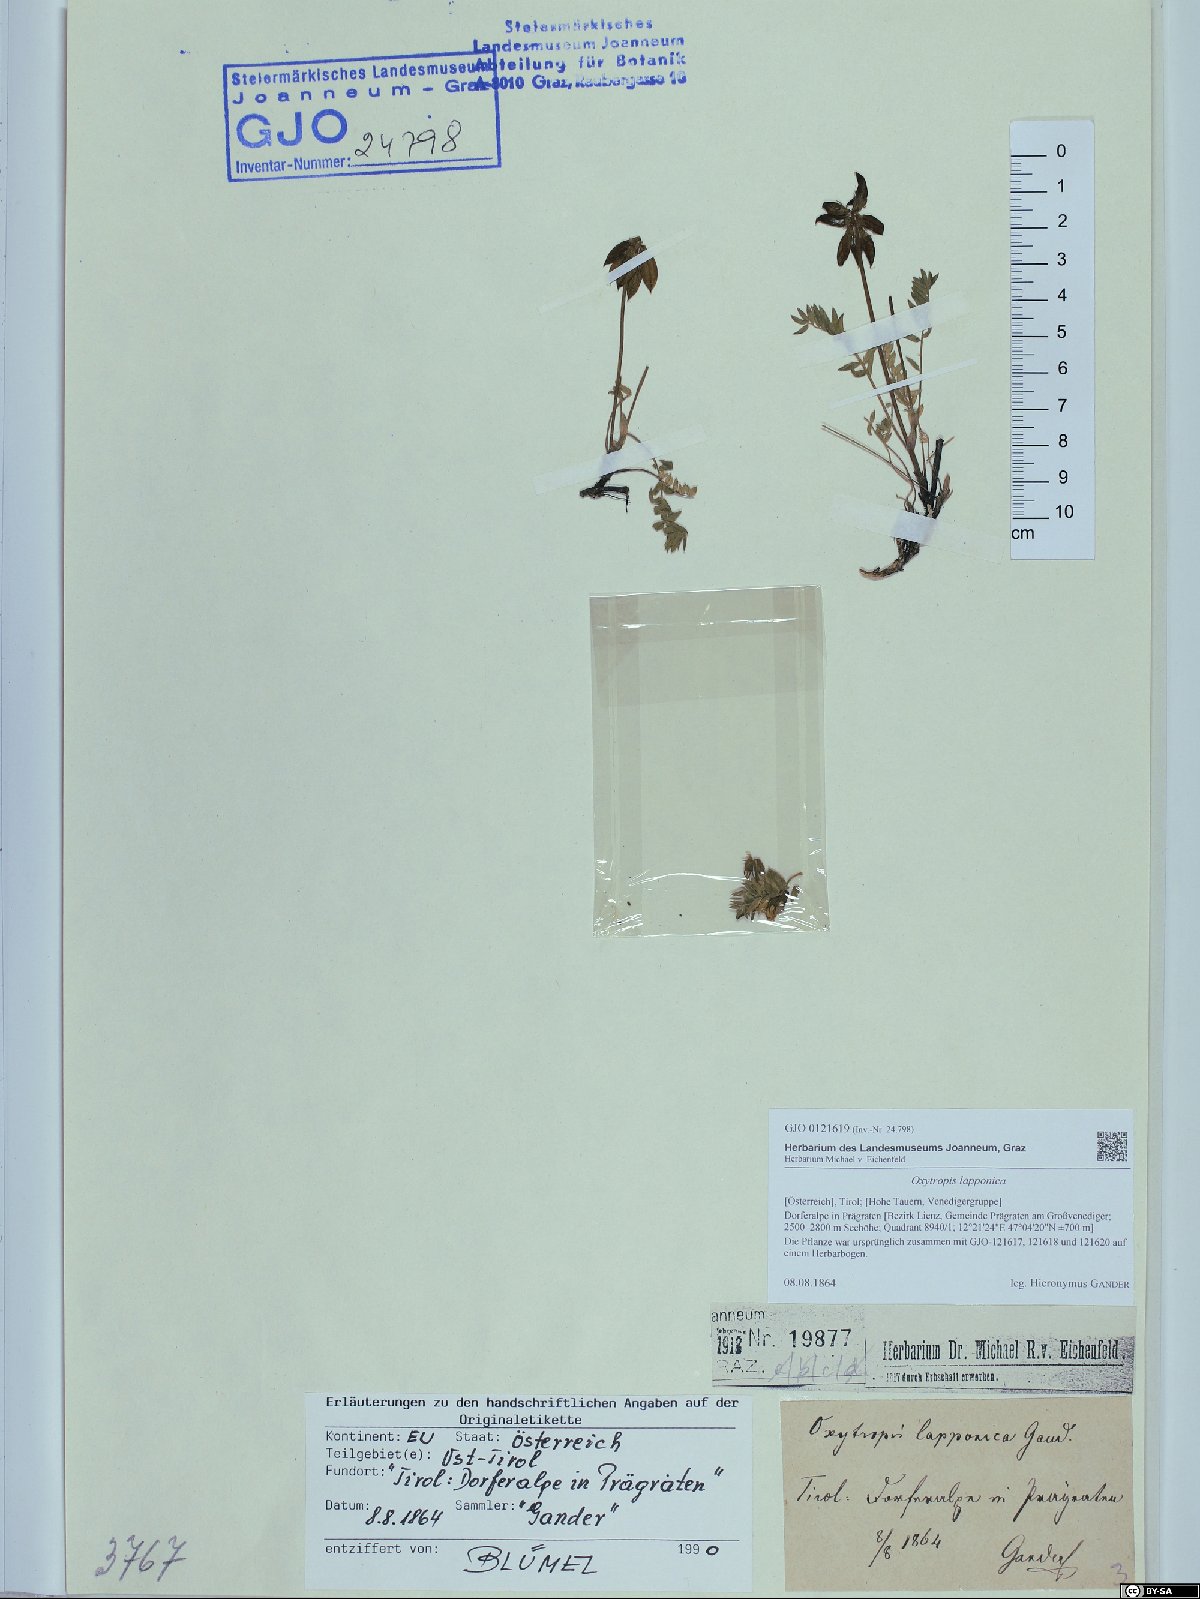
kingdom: Plantae
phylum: Tracheophyta
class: Magnoliopsida
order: Fabales
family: Fabaceae
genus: Oxytropis
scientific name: Oxytropis lapponica
